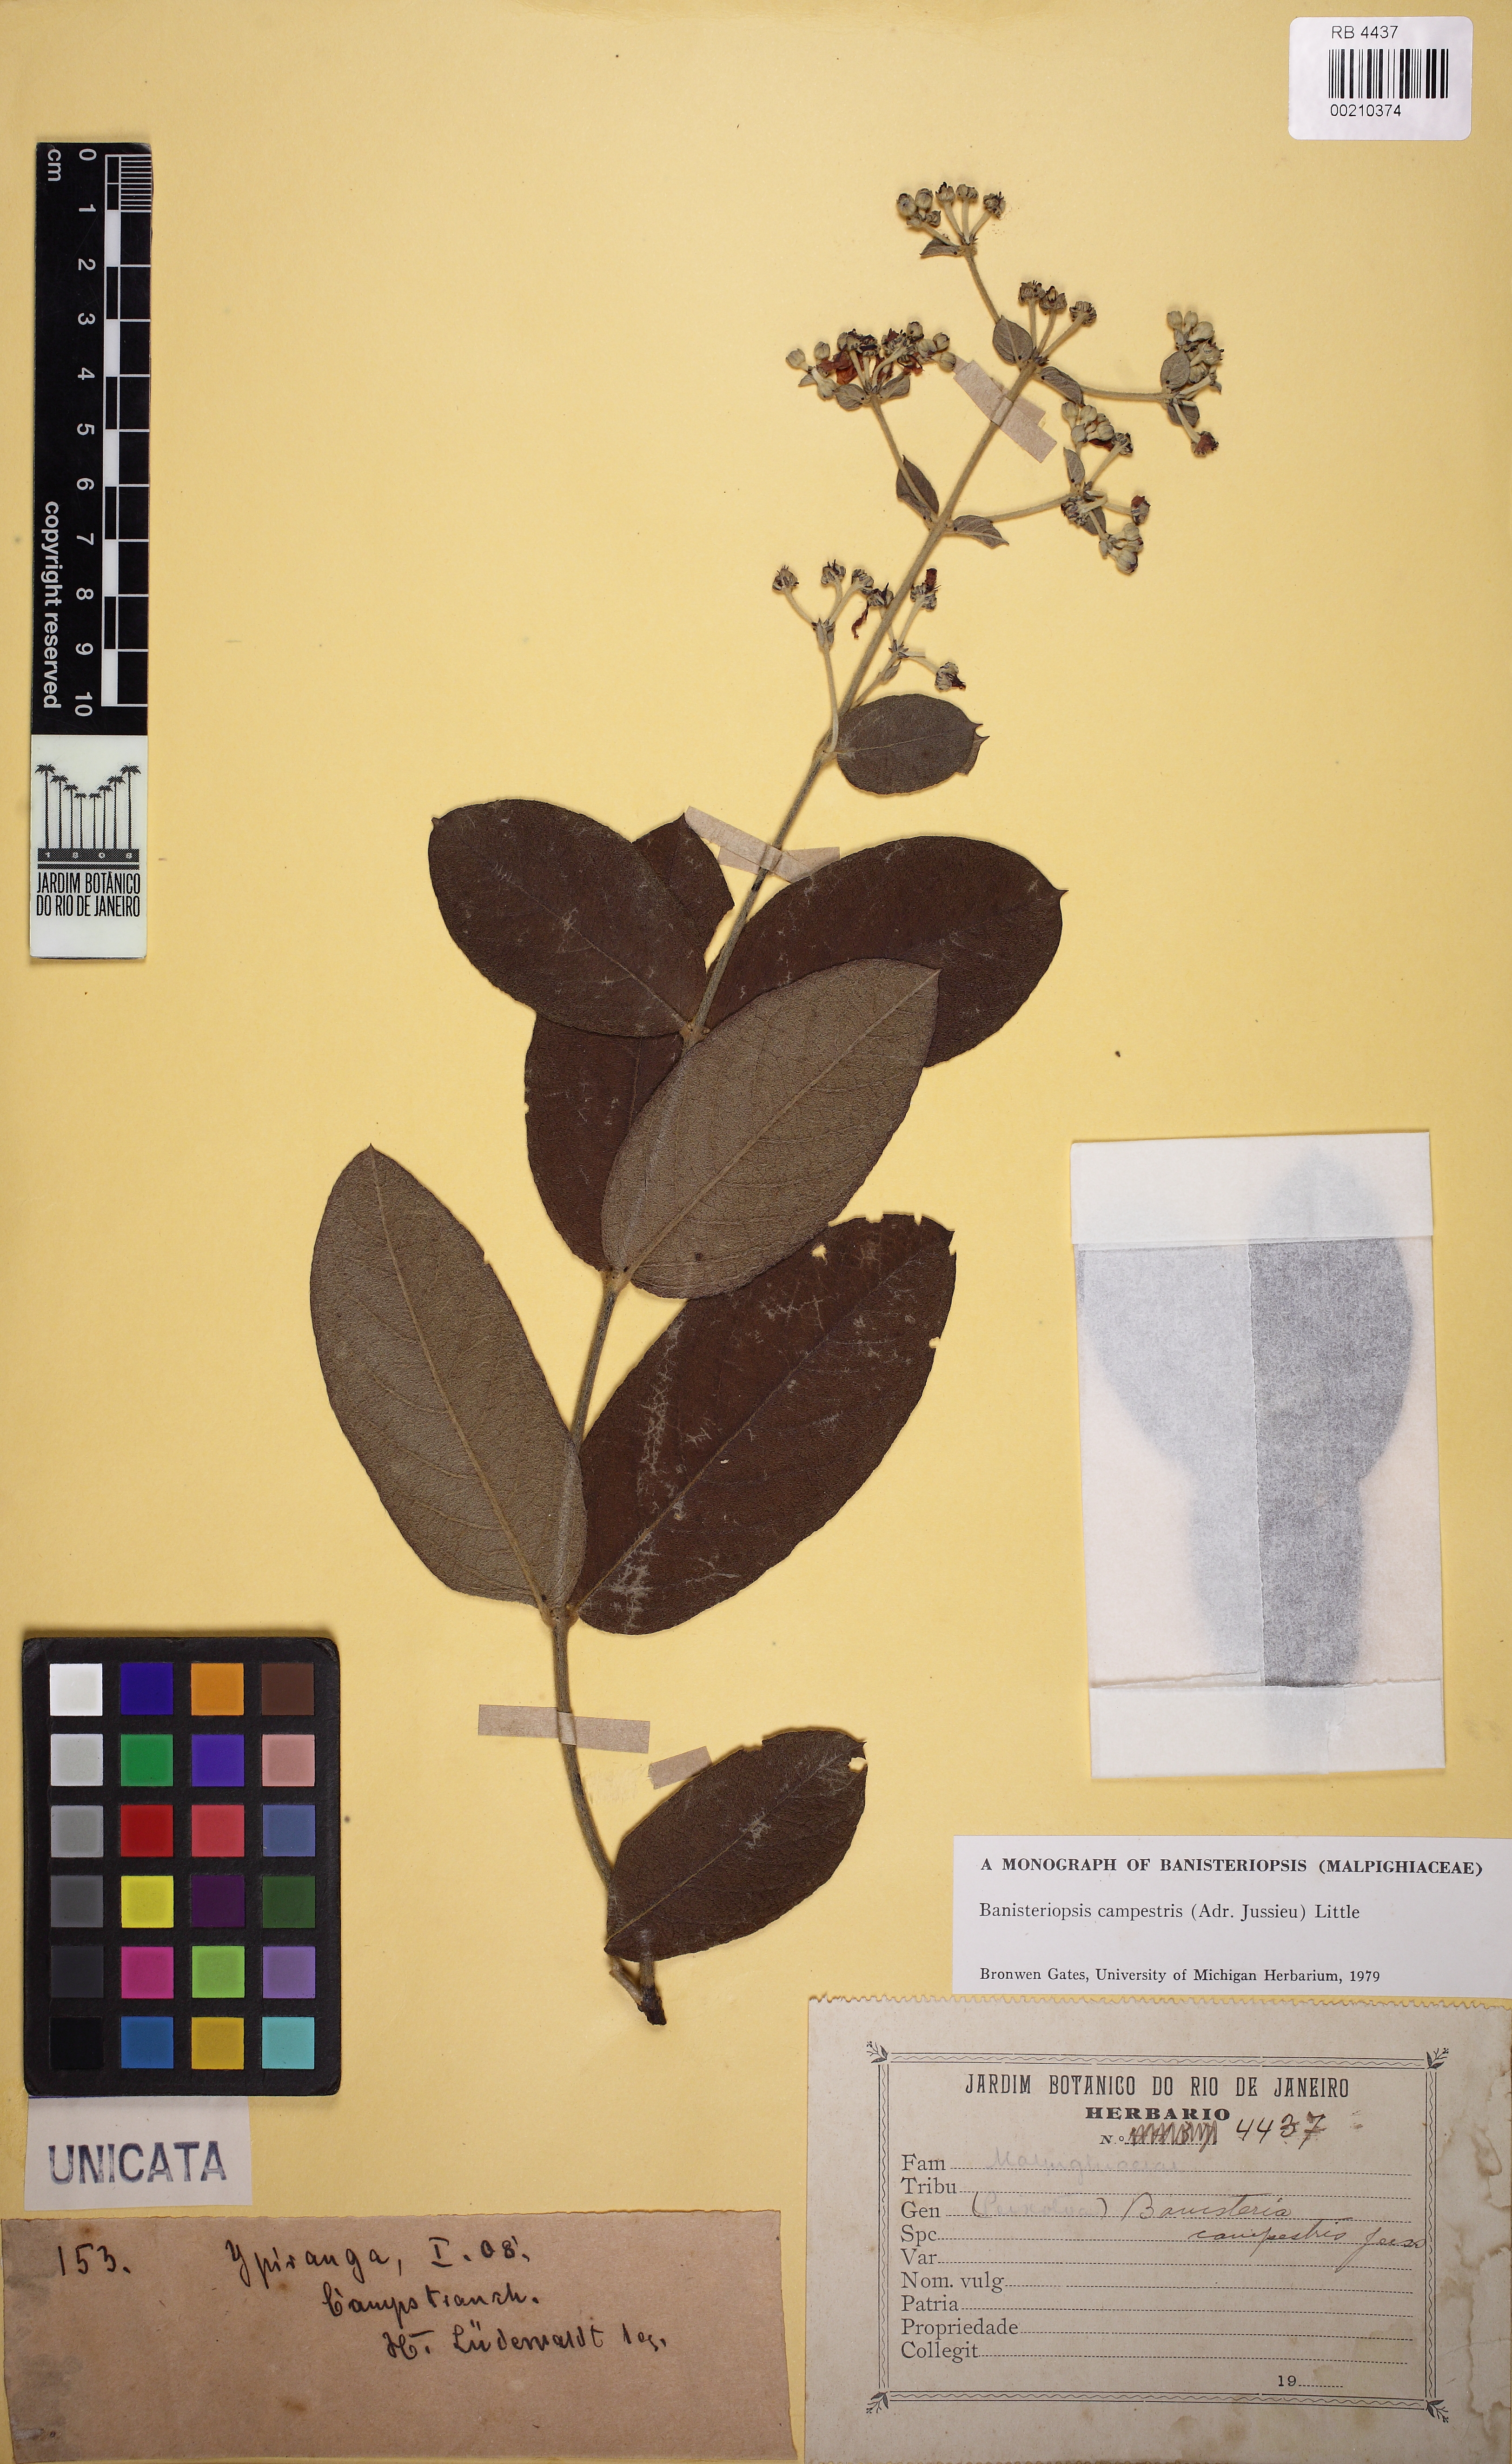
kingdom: Plantae
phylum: Tracheophyta
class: Magnoliopsida
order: Malpighiales
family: Malpighiaceae
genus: Banisteriopsis
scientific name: Banisteriopsis campestris
